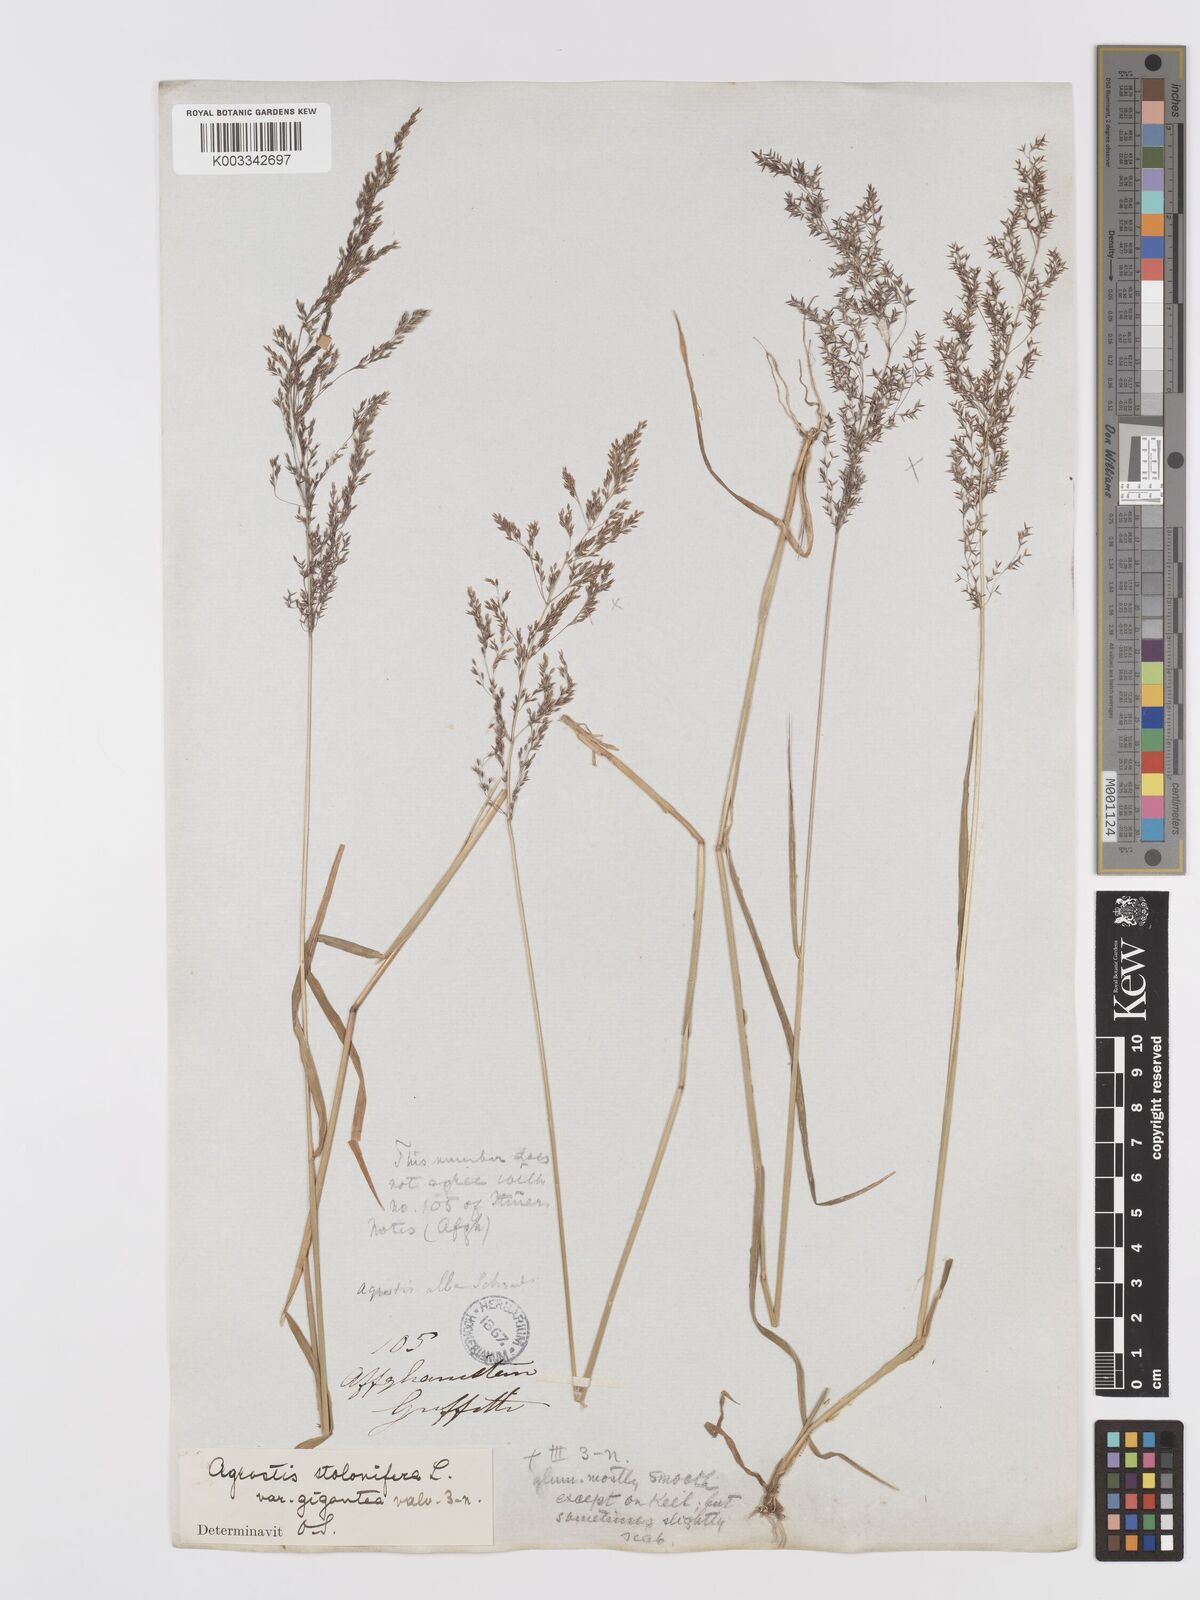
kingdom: Plantae
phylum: Tracheophyta
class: Liliopsida
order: Poales
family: Poaceae
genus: Agrostis
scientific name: Agrostis gigantea
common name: Black bent
